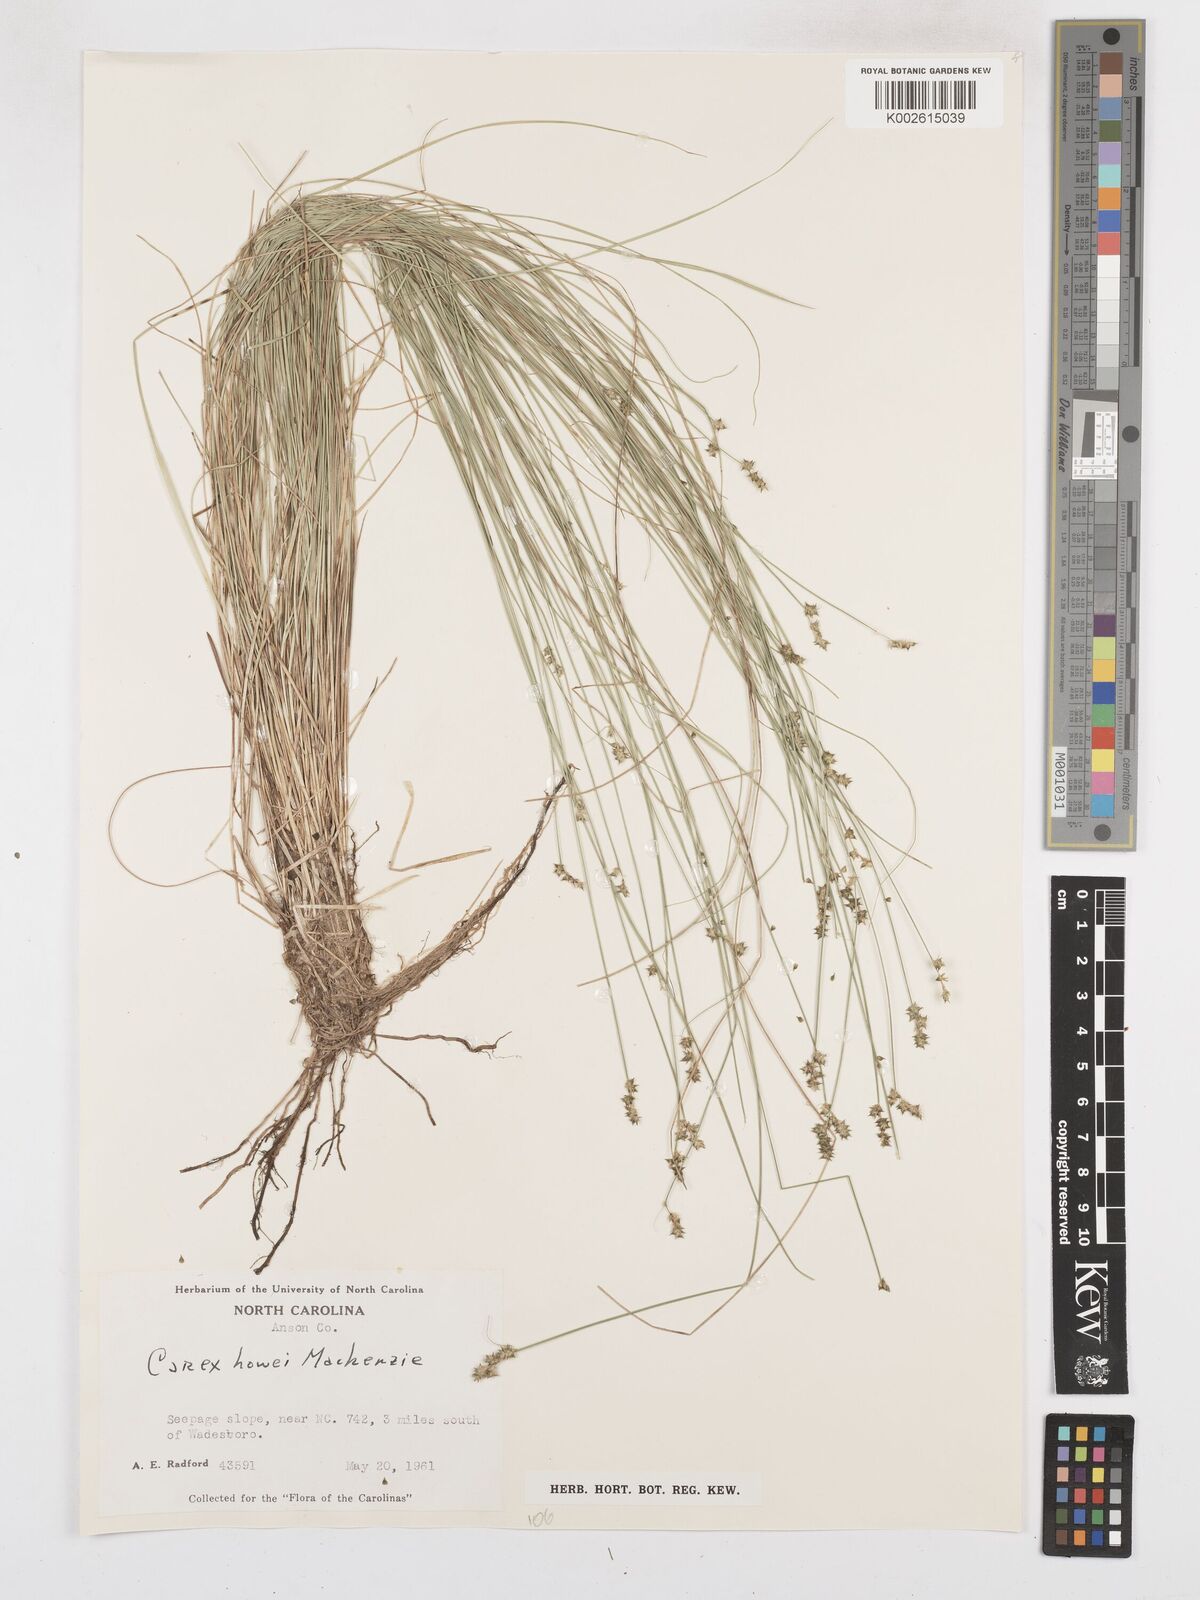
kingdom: Plantae
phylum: Tracheophyta
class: Liliopsida
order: Poales
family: Cyperaceae
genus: Carex
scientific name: Carex atlantica
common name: Atlantic sedge
